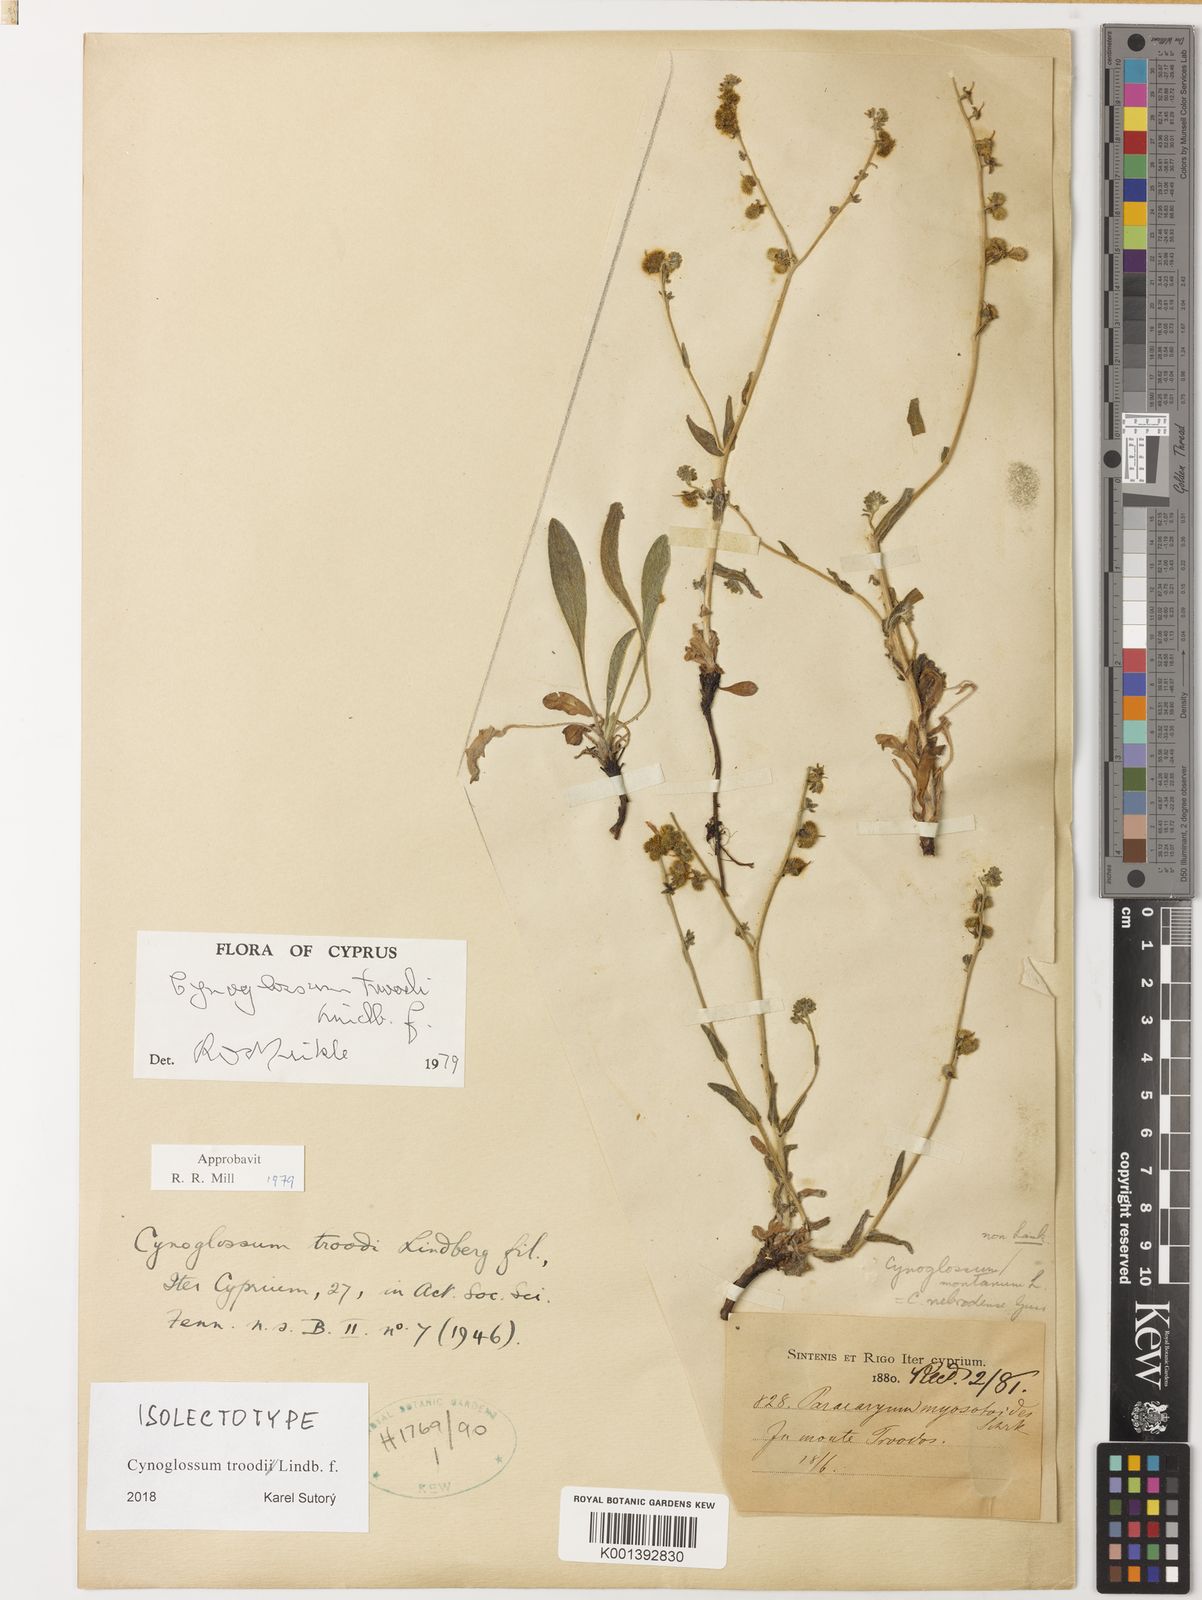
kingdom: Plantae
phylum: Tracheophyta
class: Magnoliopsida
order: Boraginales
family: Boraginaceae
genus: Paracaryum
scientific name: Paracaryum lithospermifolium
